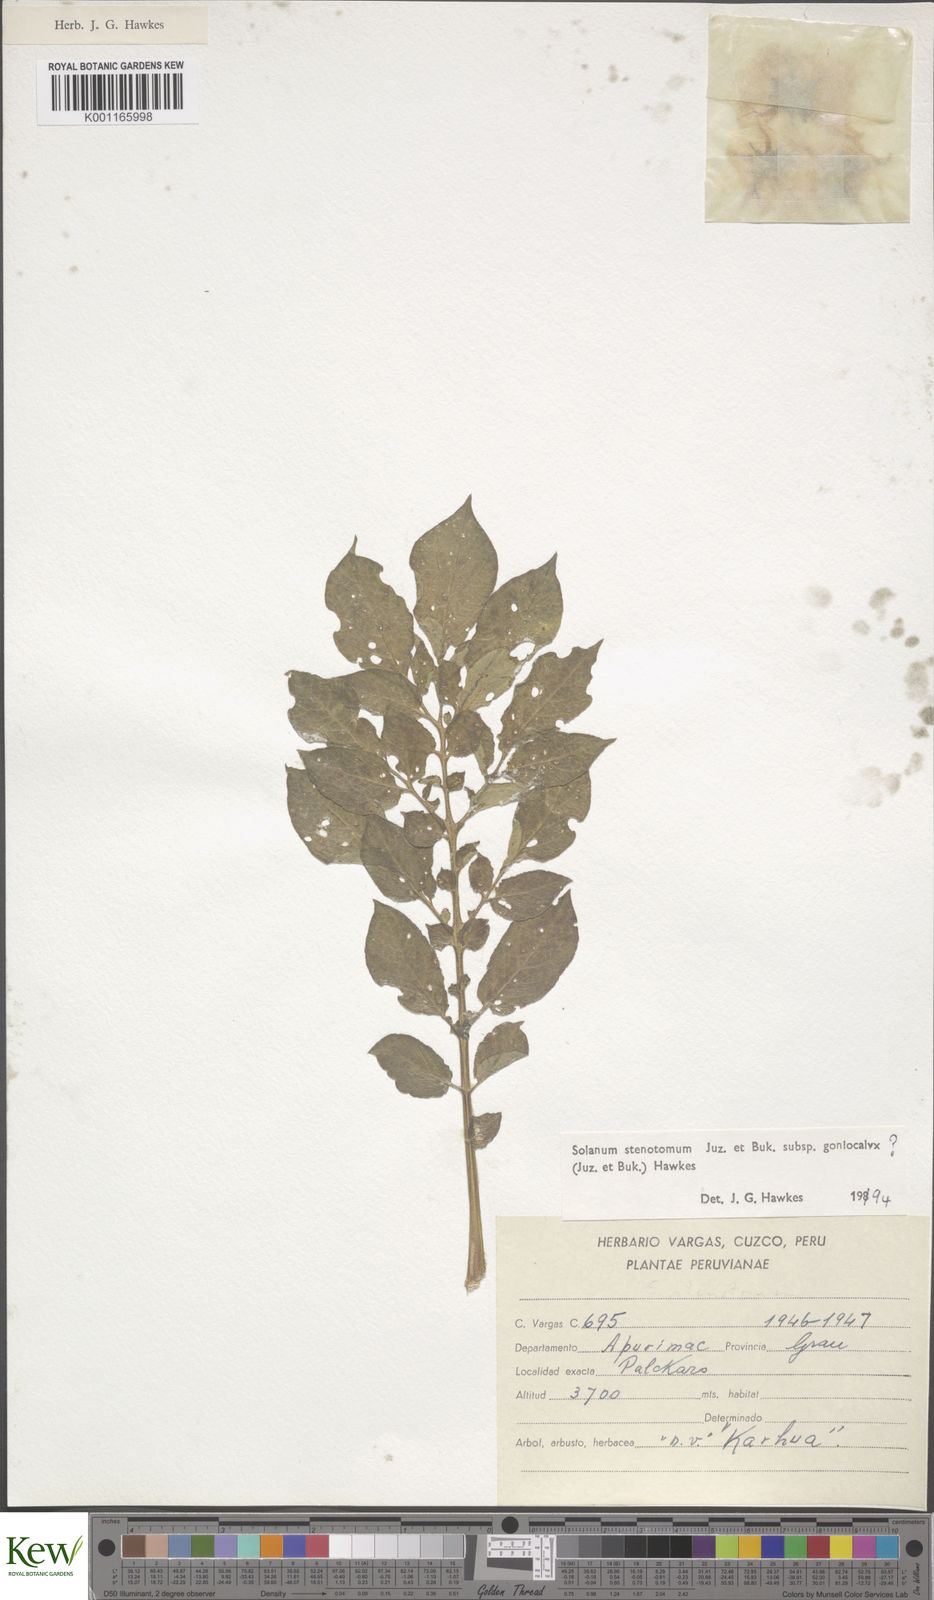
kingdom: Plantae
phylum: Tracheophyta
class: Magnoliopsida
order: Solanales
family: Solanaceae
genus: Solanum
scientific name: Solanum tuberosum
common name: Potato
